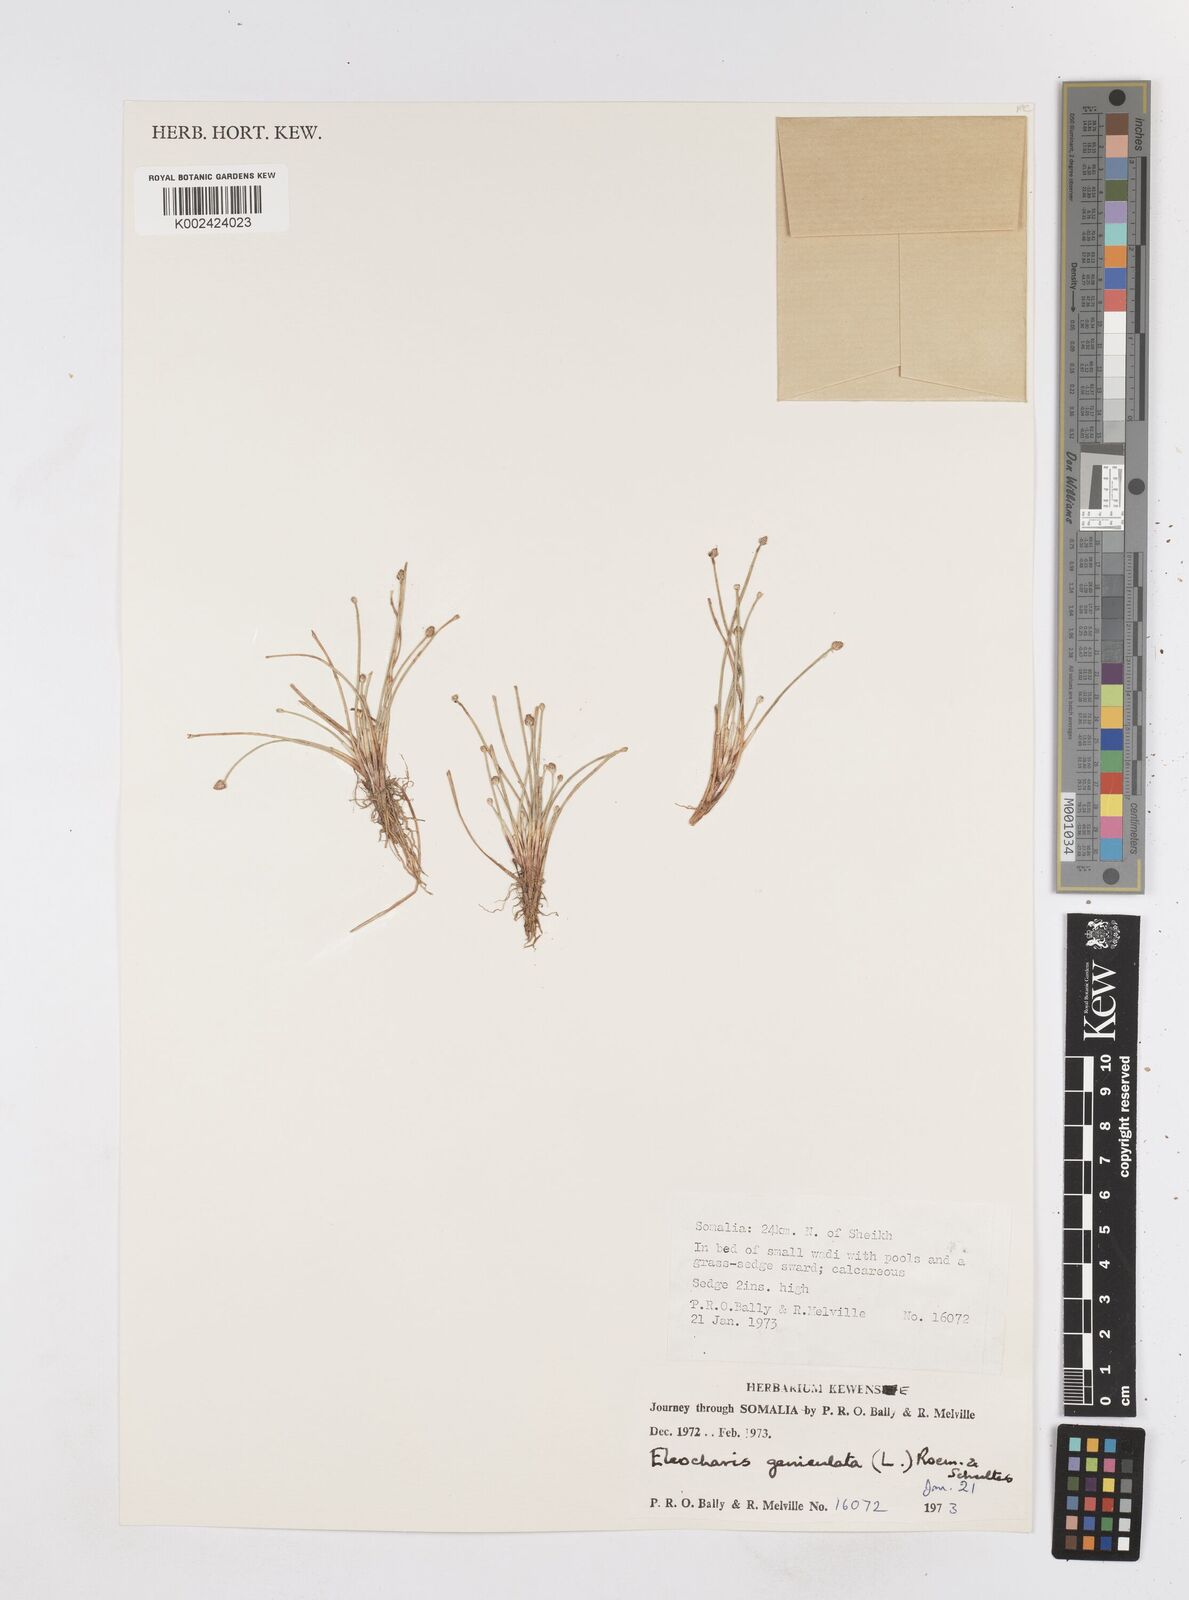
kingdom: Plantae
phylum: Tracheophyta
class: Liliopsida
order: Poales
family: Cyperaceae
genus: Eleocharis
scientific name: Eleocharis geniculata
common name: Canada spikesedge
